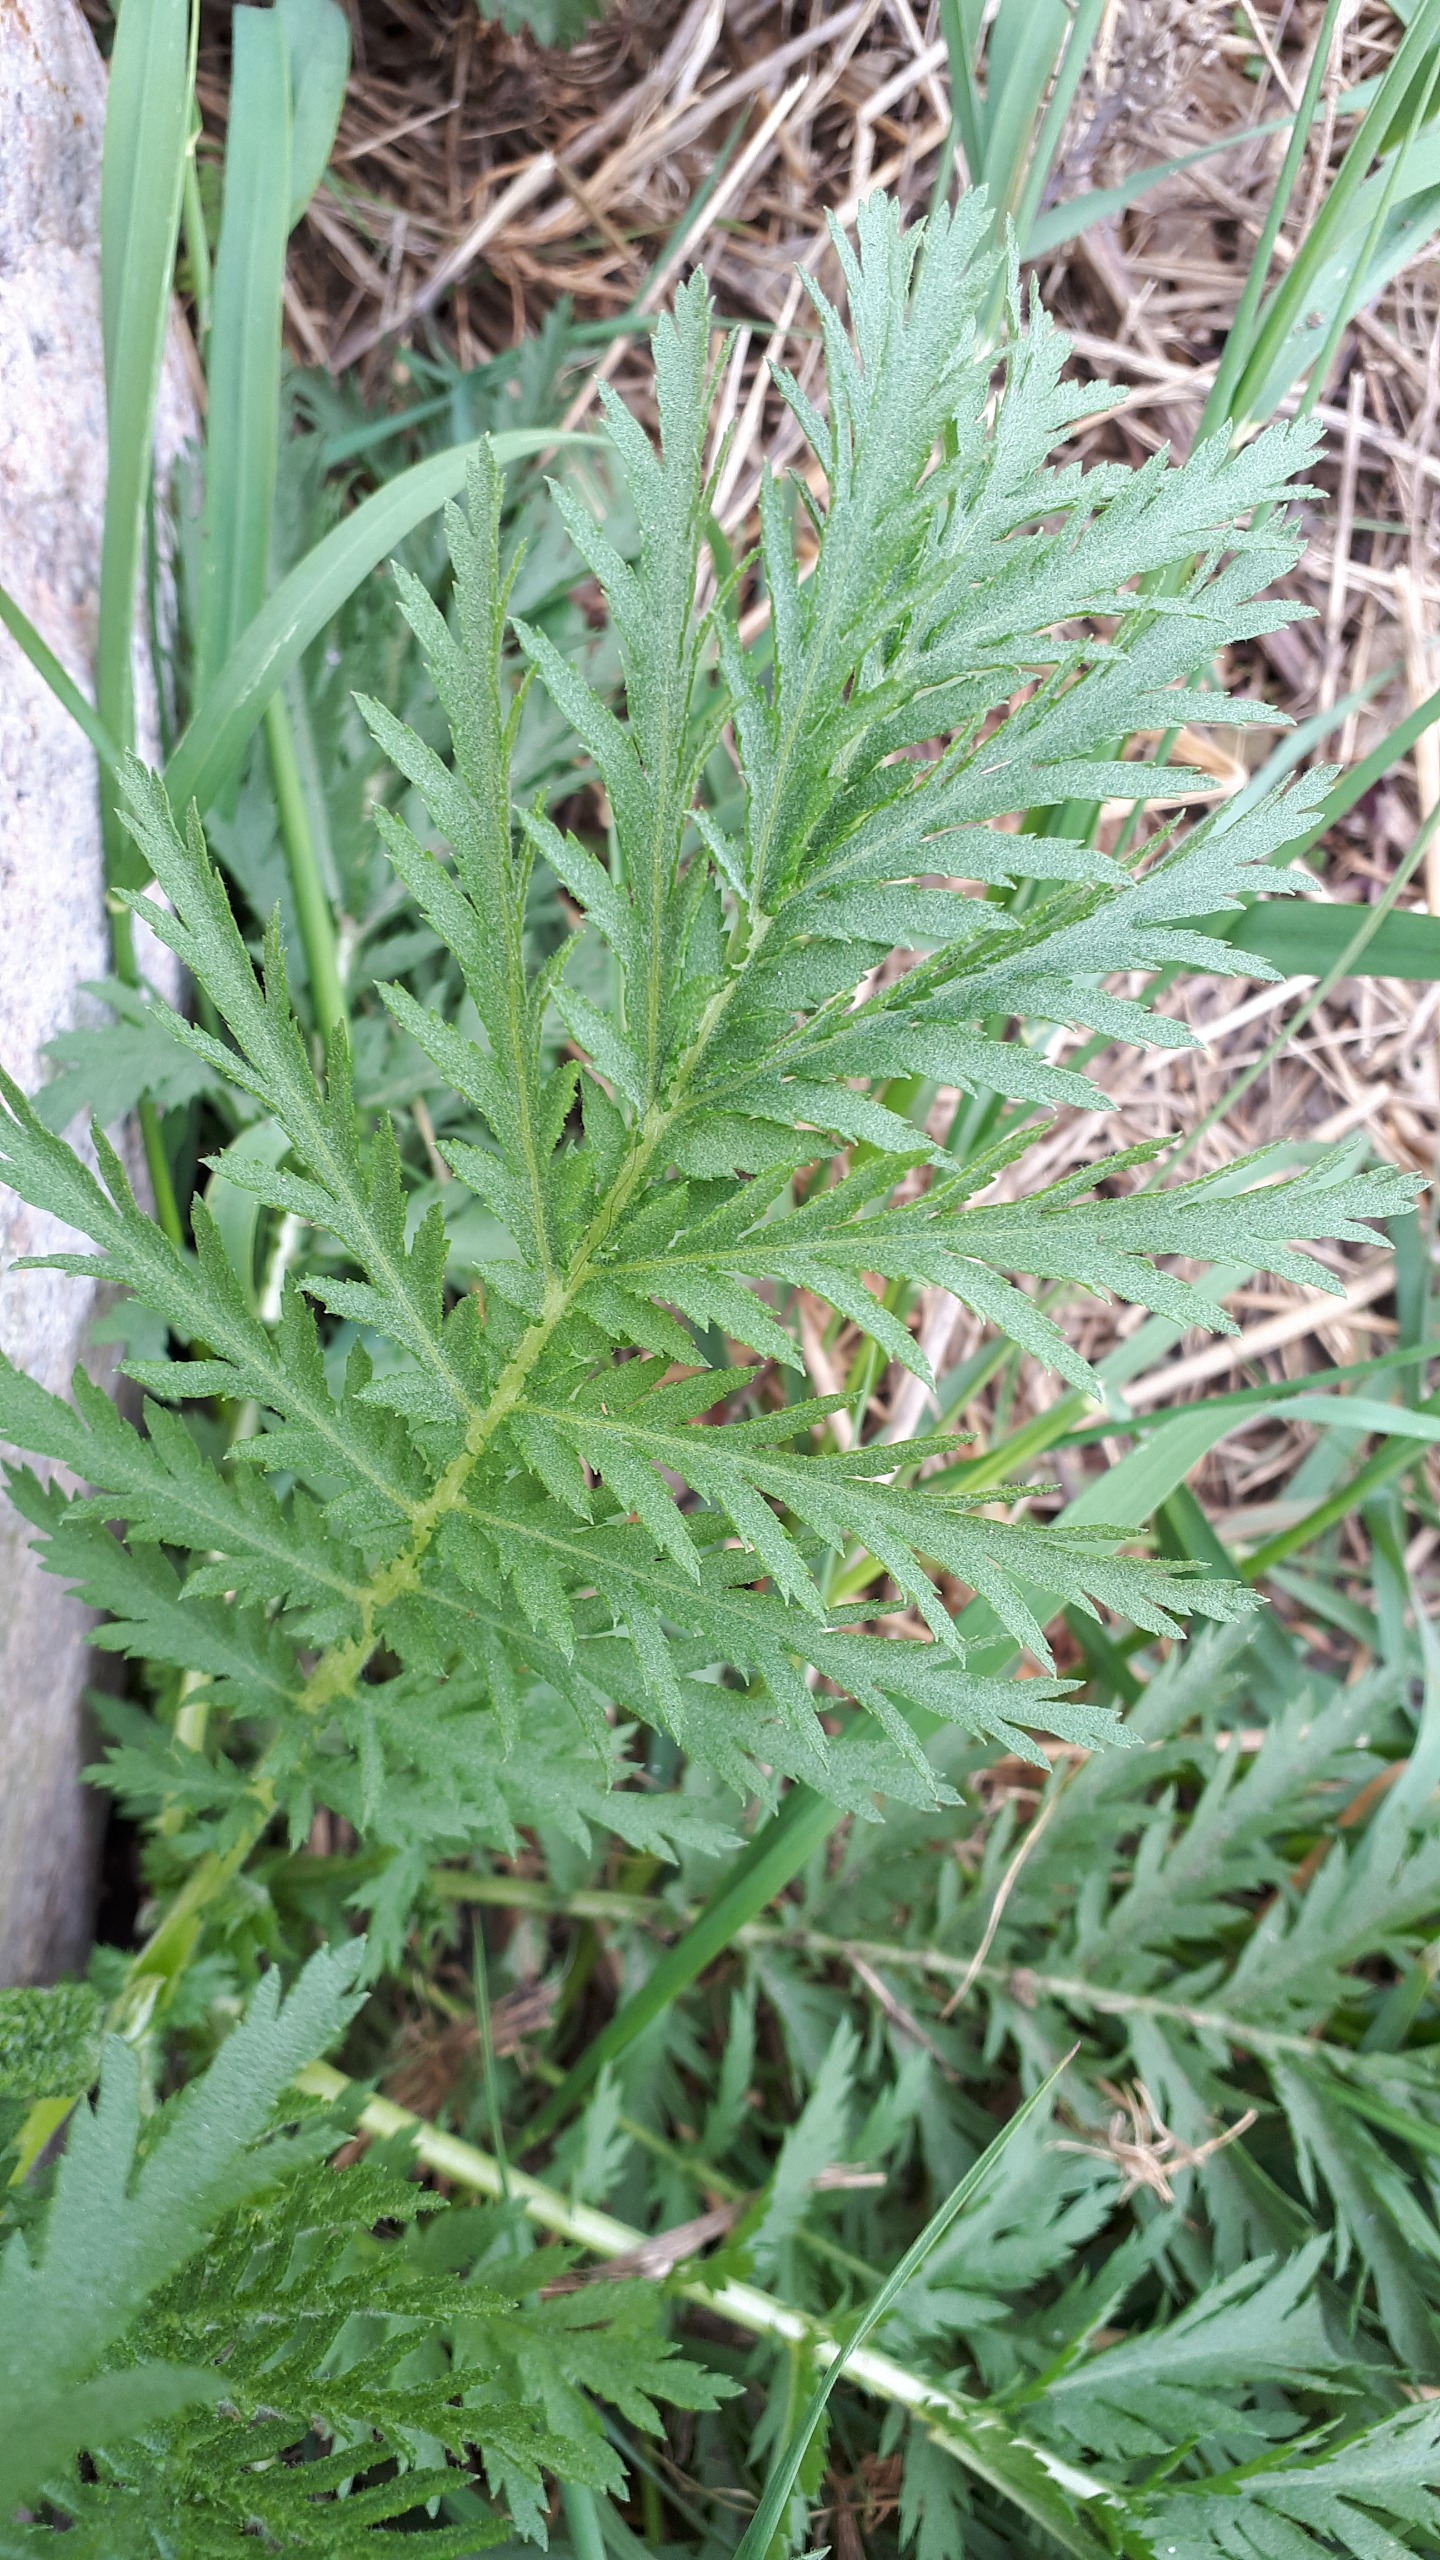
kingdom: Plantae
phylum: Tracheophyta
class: Magnoliopsida
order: Asterales
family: Asteraceae
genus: Tanacetum
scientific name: Tanacetum vulgare
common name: Rejnfan
